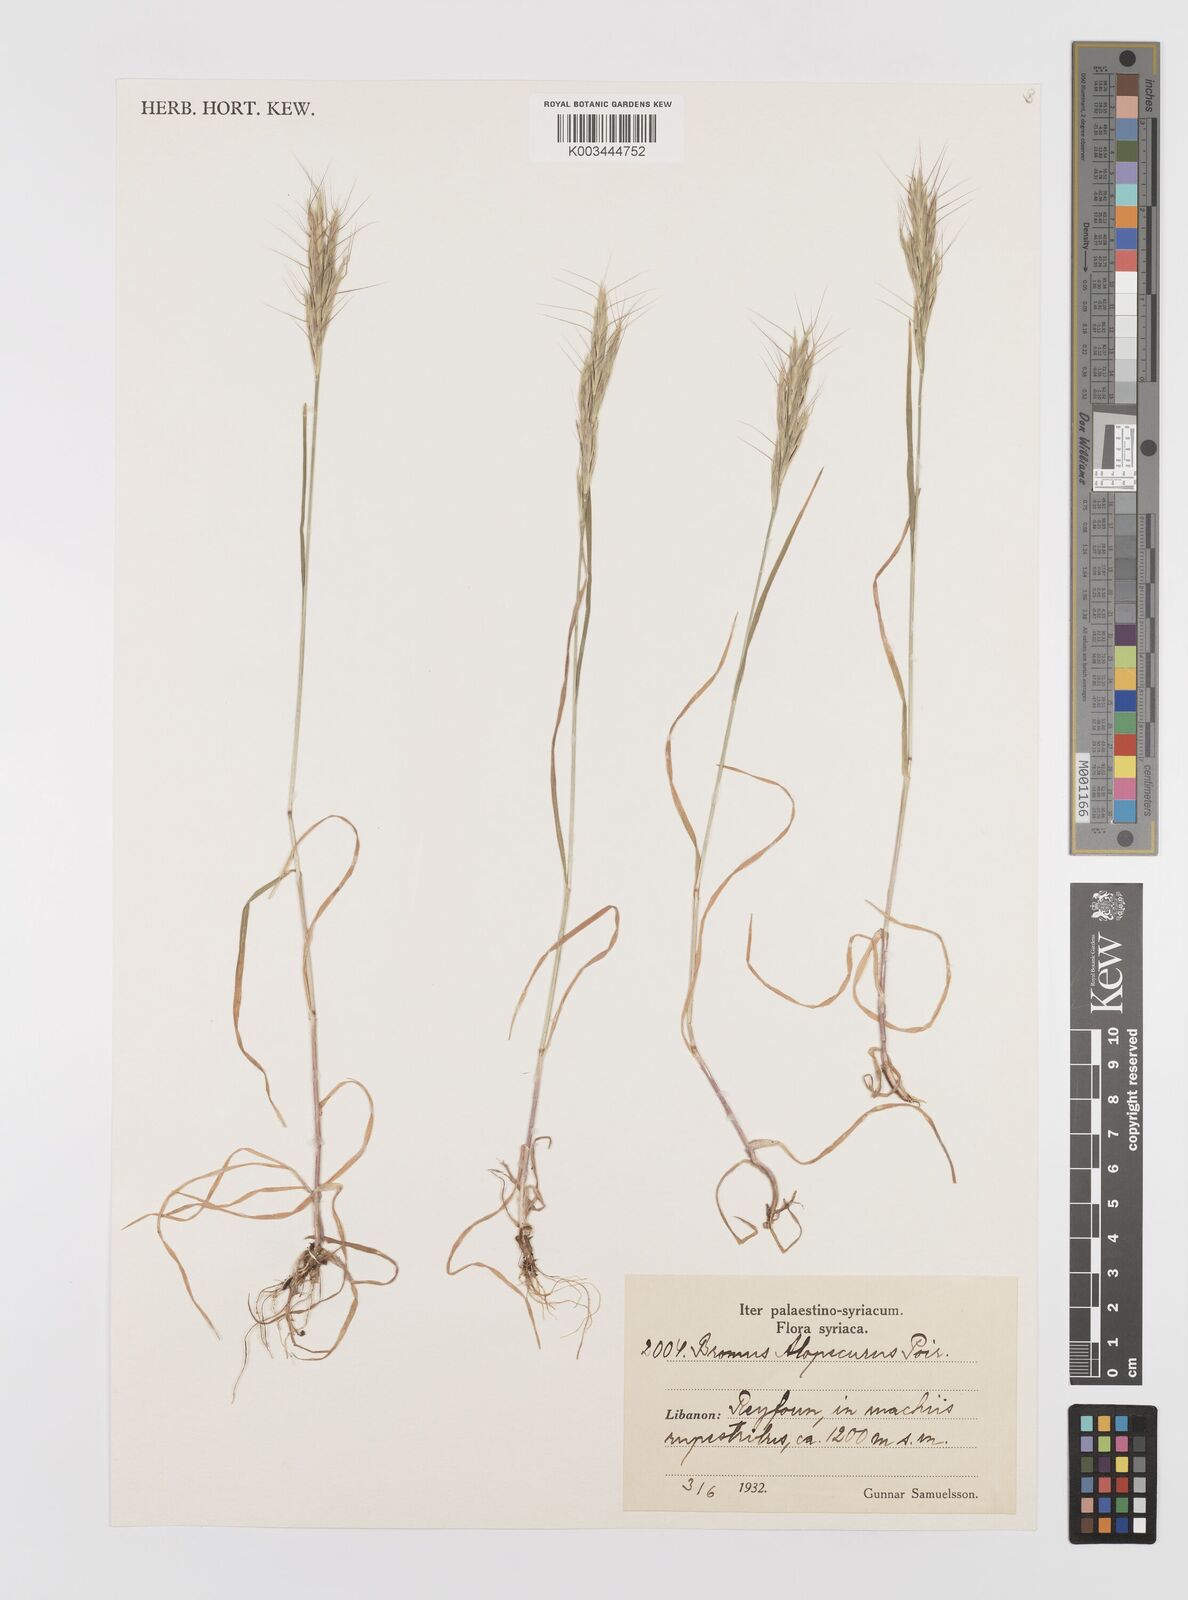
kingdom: Plantae
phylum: Tracheophyta
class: Liliopsida
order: Poales
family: Poaceae
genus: Bromus
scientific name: Bromus alopecuros
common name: Weedy brome
